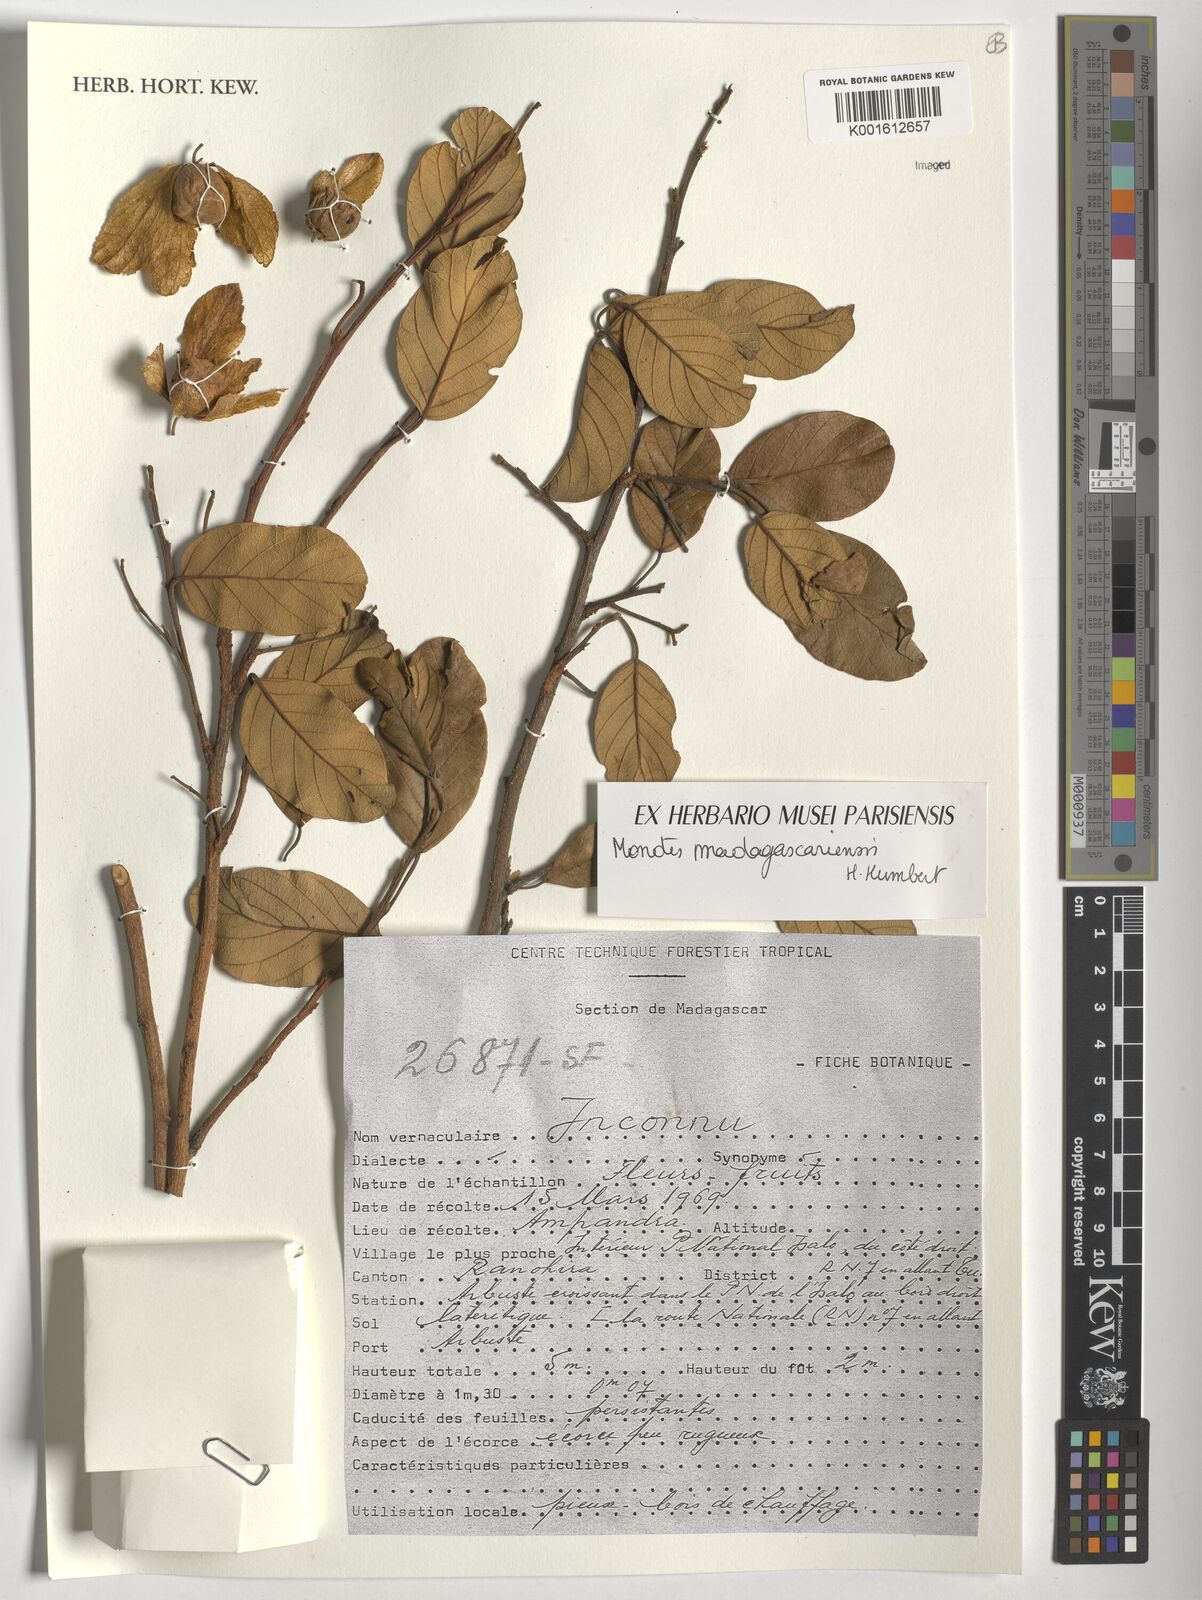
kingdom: Plantae
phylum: Tracheophyta
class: Magnoliopsida
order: Malvales
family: Dipterocarpaceae
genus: Monotes
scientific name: Monotes madagascariensis
